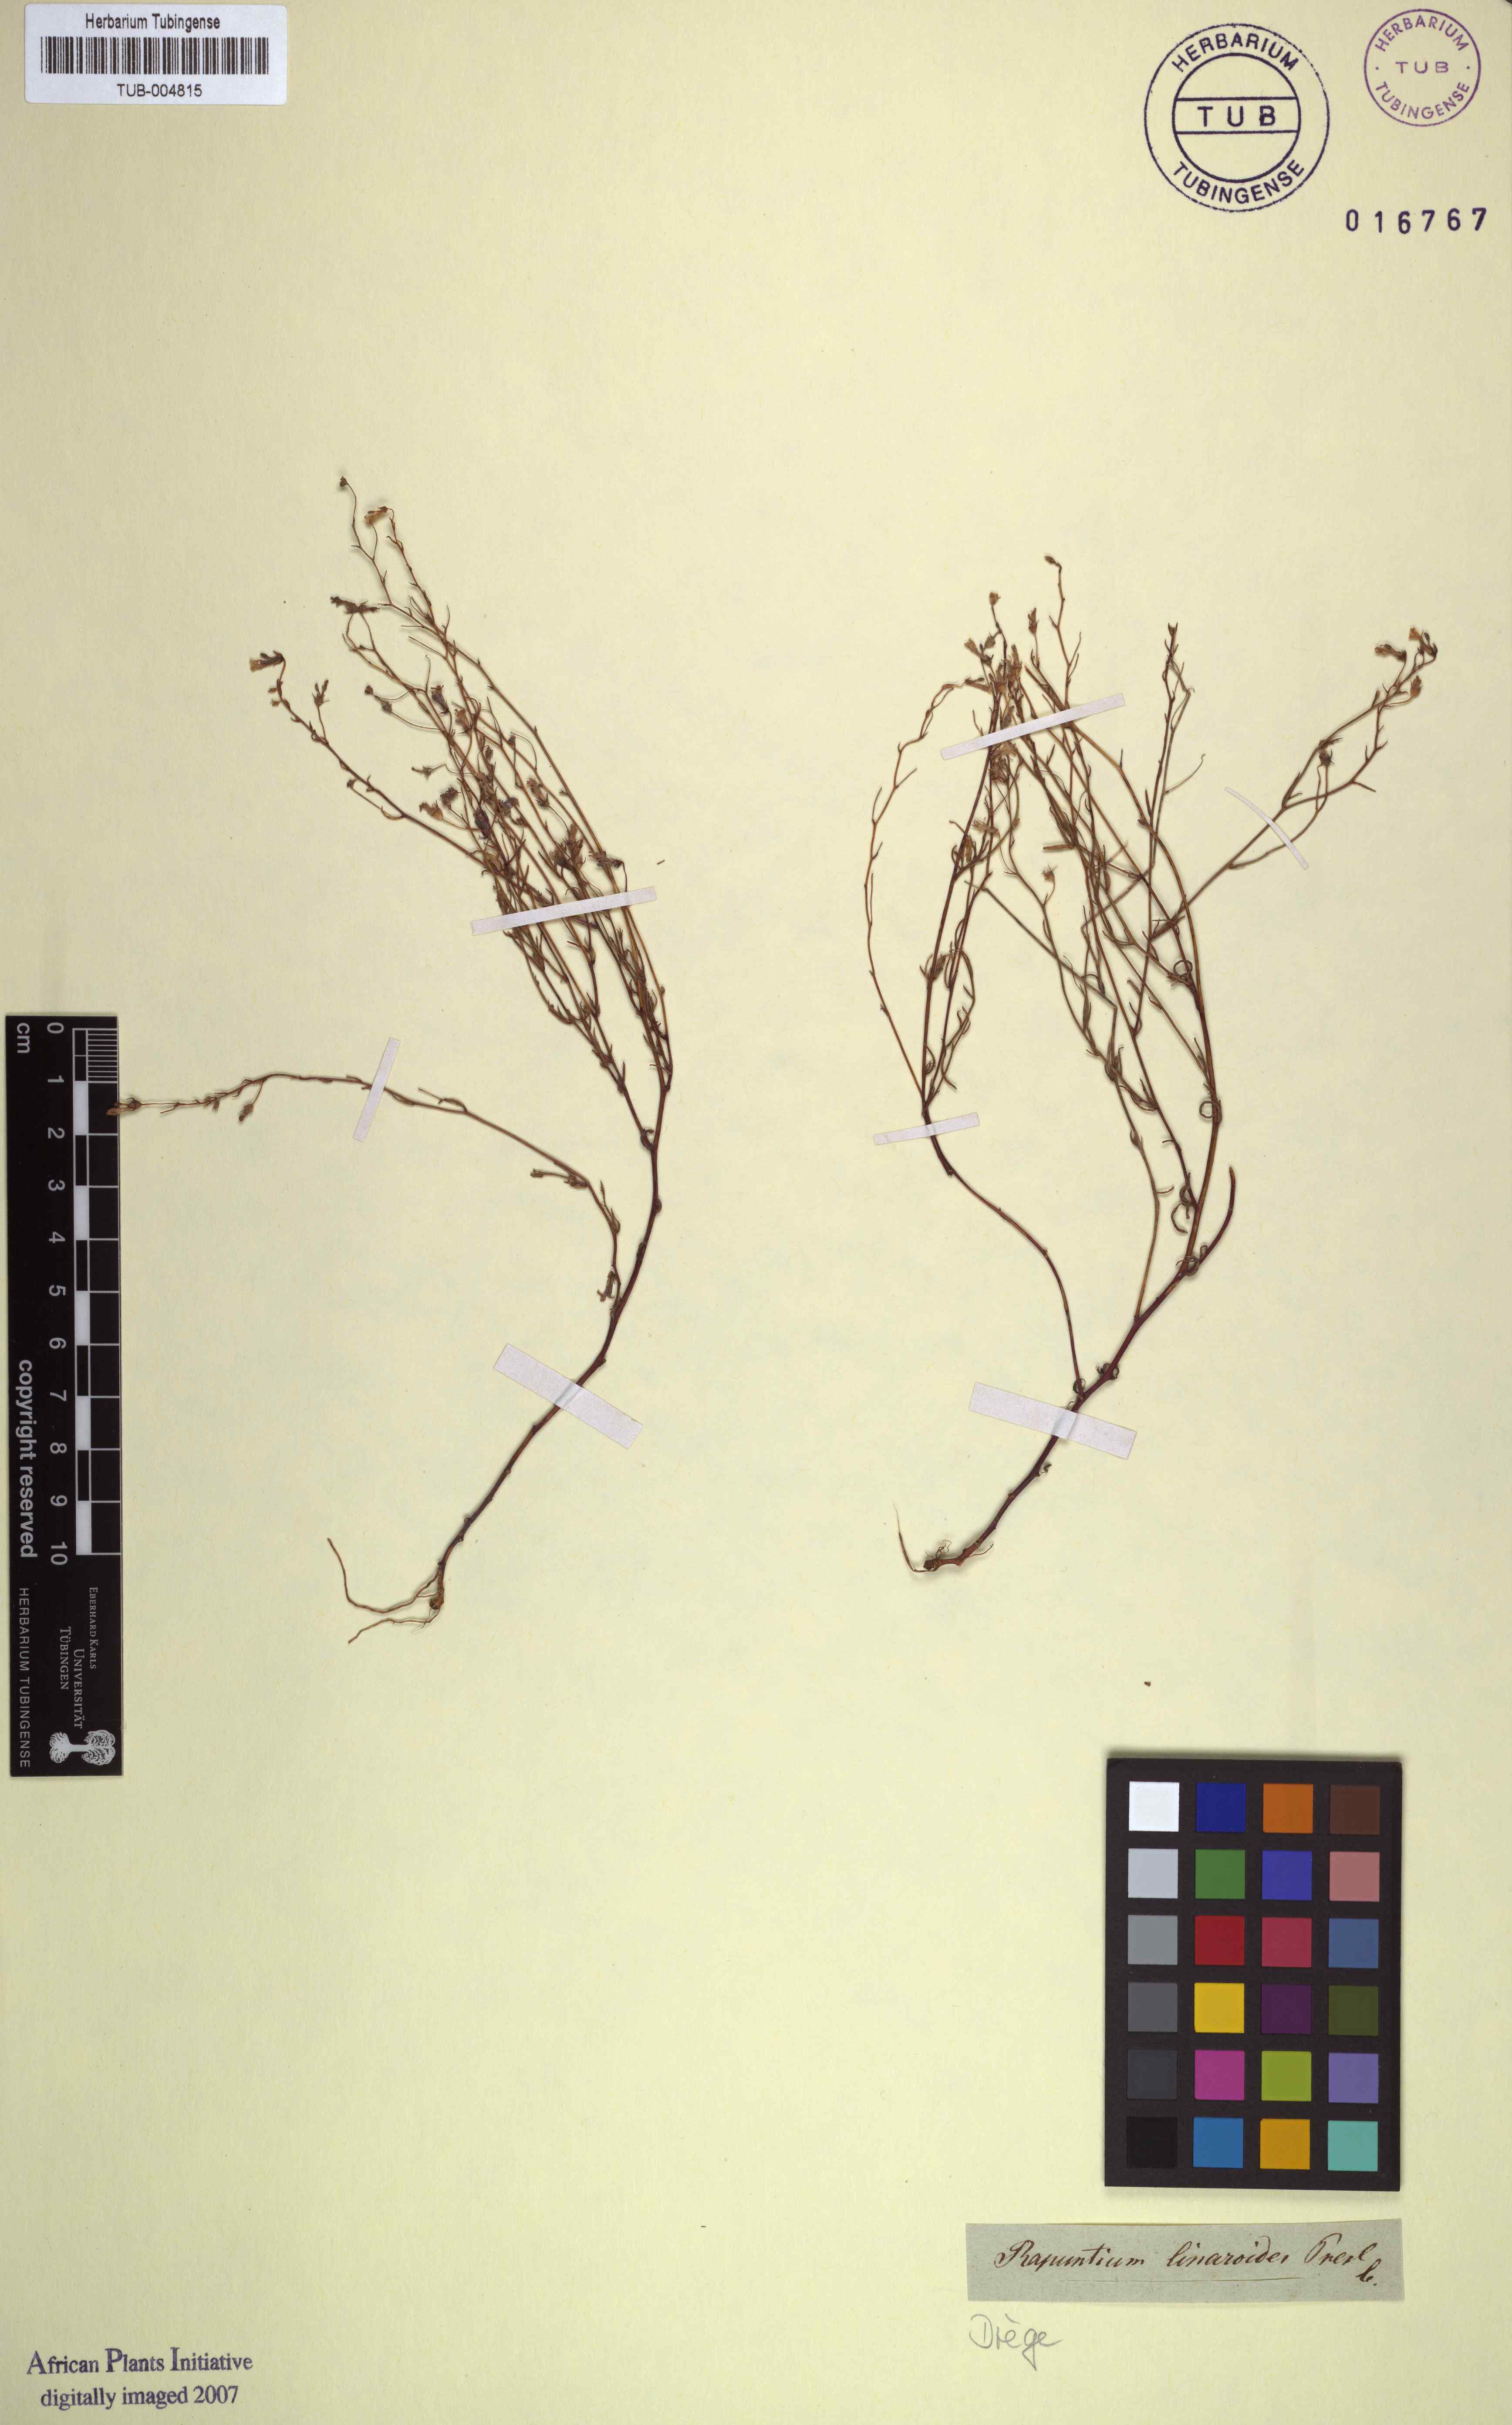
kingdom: Plantae
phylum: Tracheophyta
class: Magnoliopsida
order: Asterales
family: Campanulaceae
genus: Lobelia
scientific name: Lobelia linarioides
